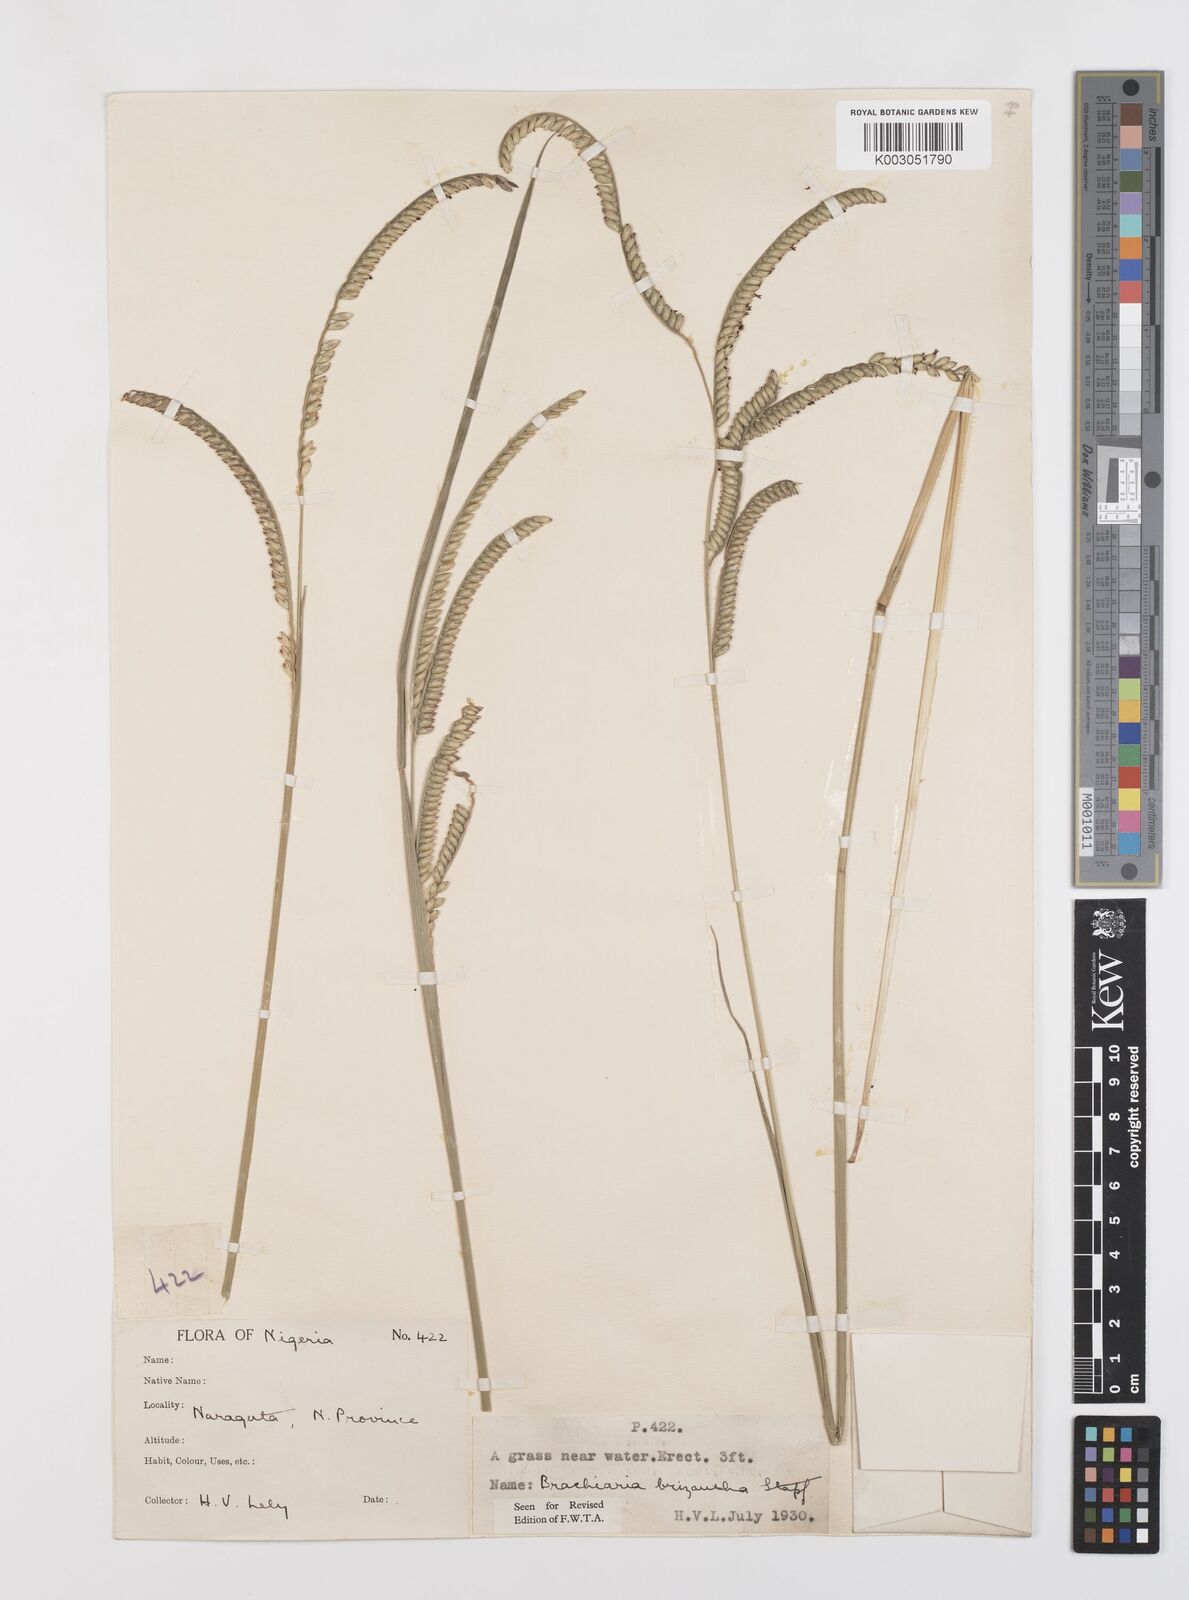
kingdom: Plantae
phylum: Tracheophyta
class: Liliopsida
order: Poales
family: Poaceae
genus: Urochloa
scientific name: Urochloa brizantha
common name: Palisade signalgrass
